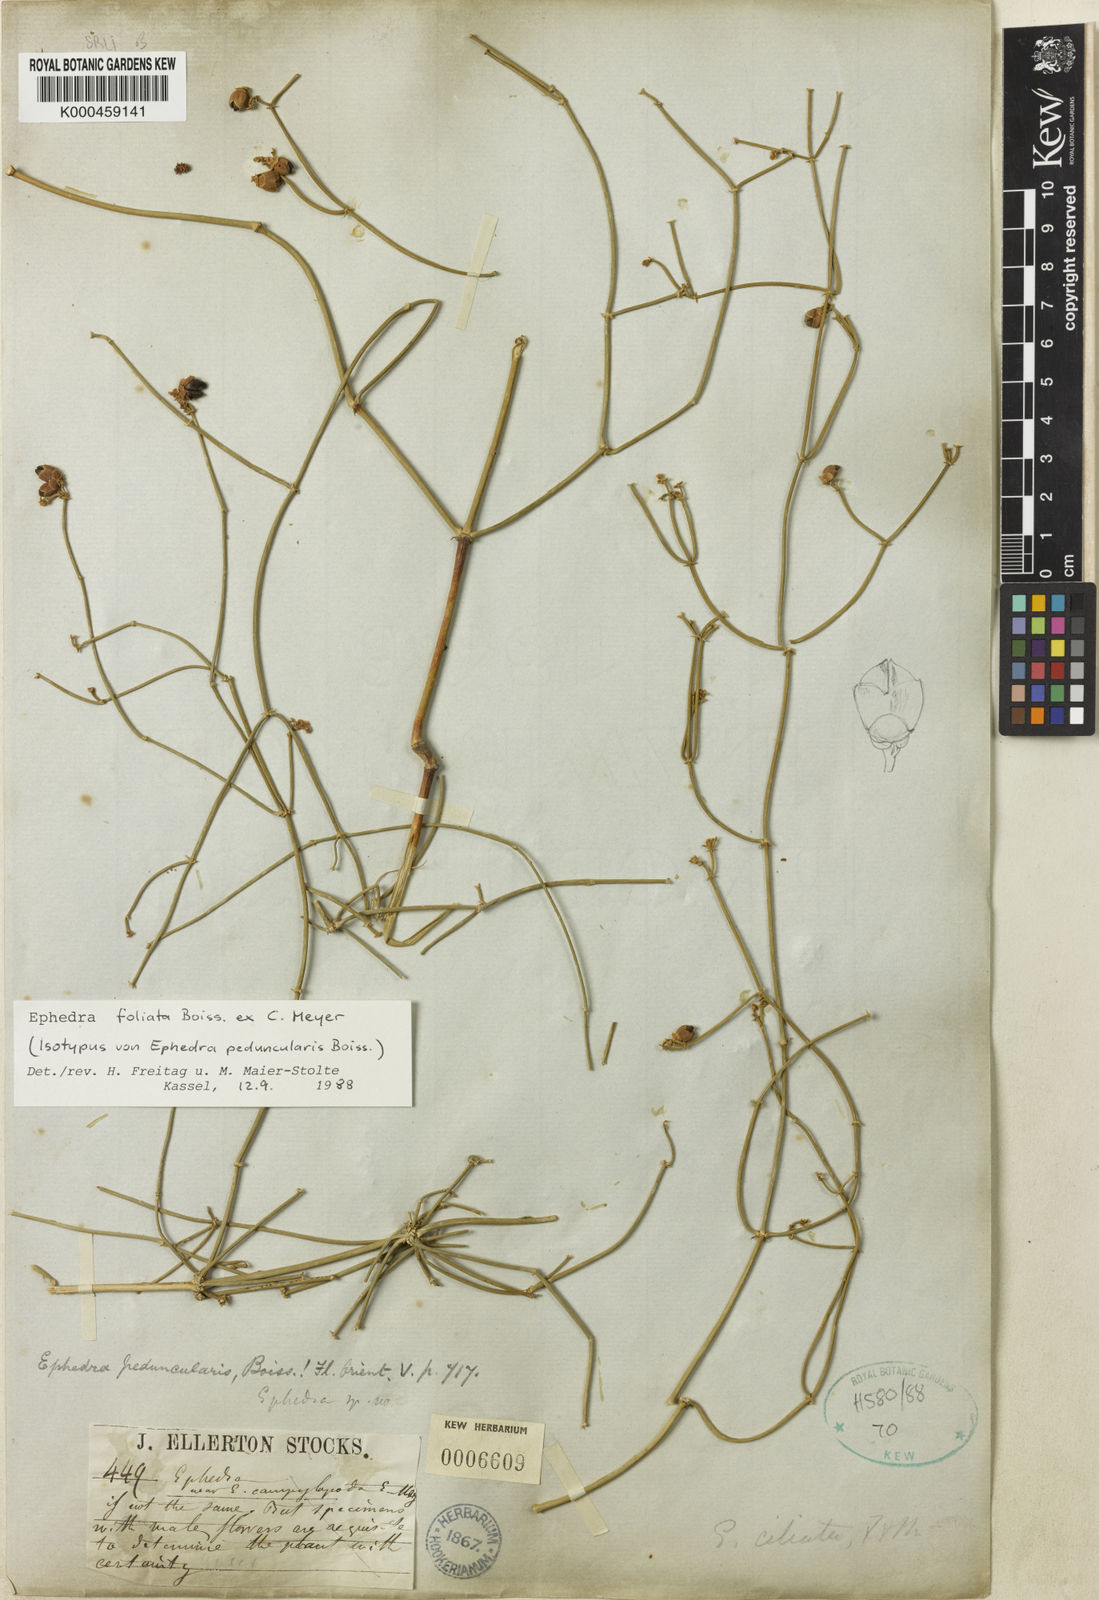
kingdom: Plantae
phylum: Tracheophyta
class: Gnetopsida
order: Ephedrales
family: Ephedraceae
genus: Ephedra
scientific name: Ephedra pachyclada
